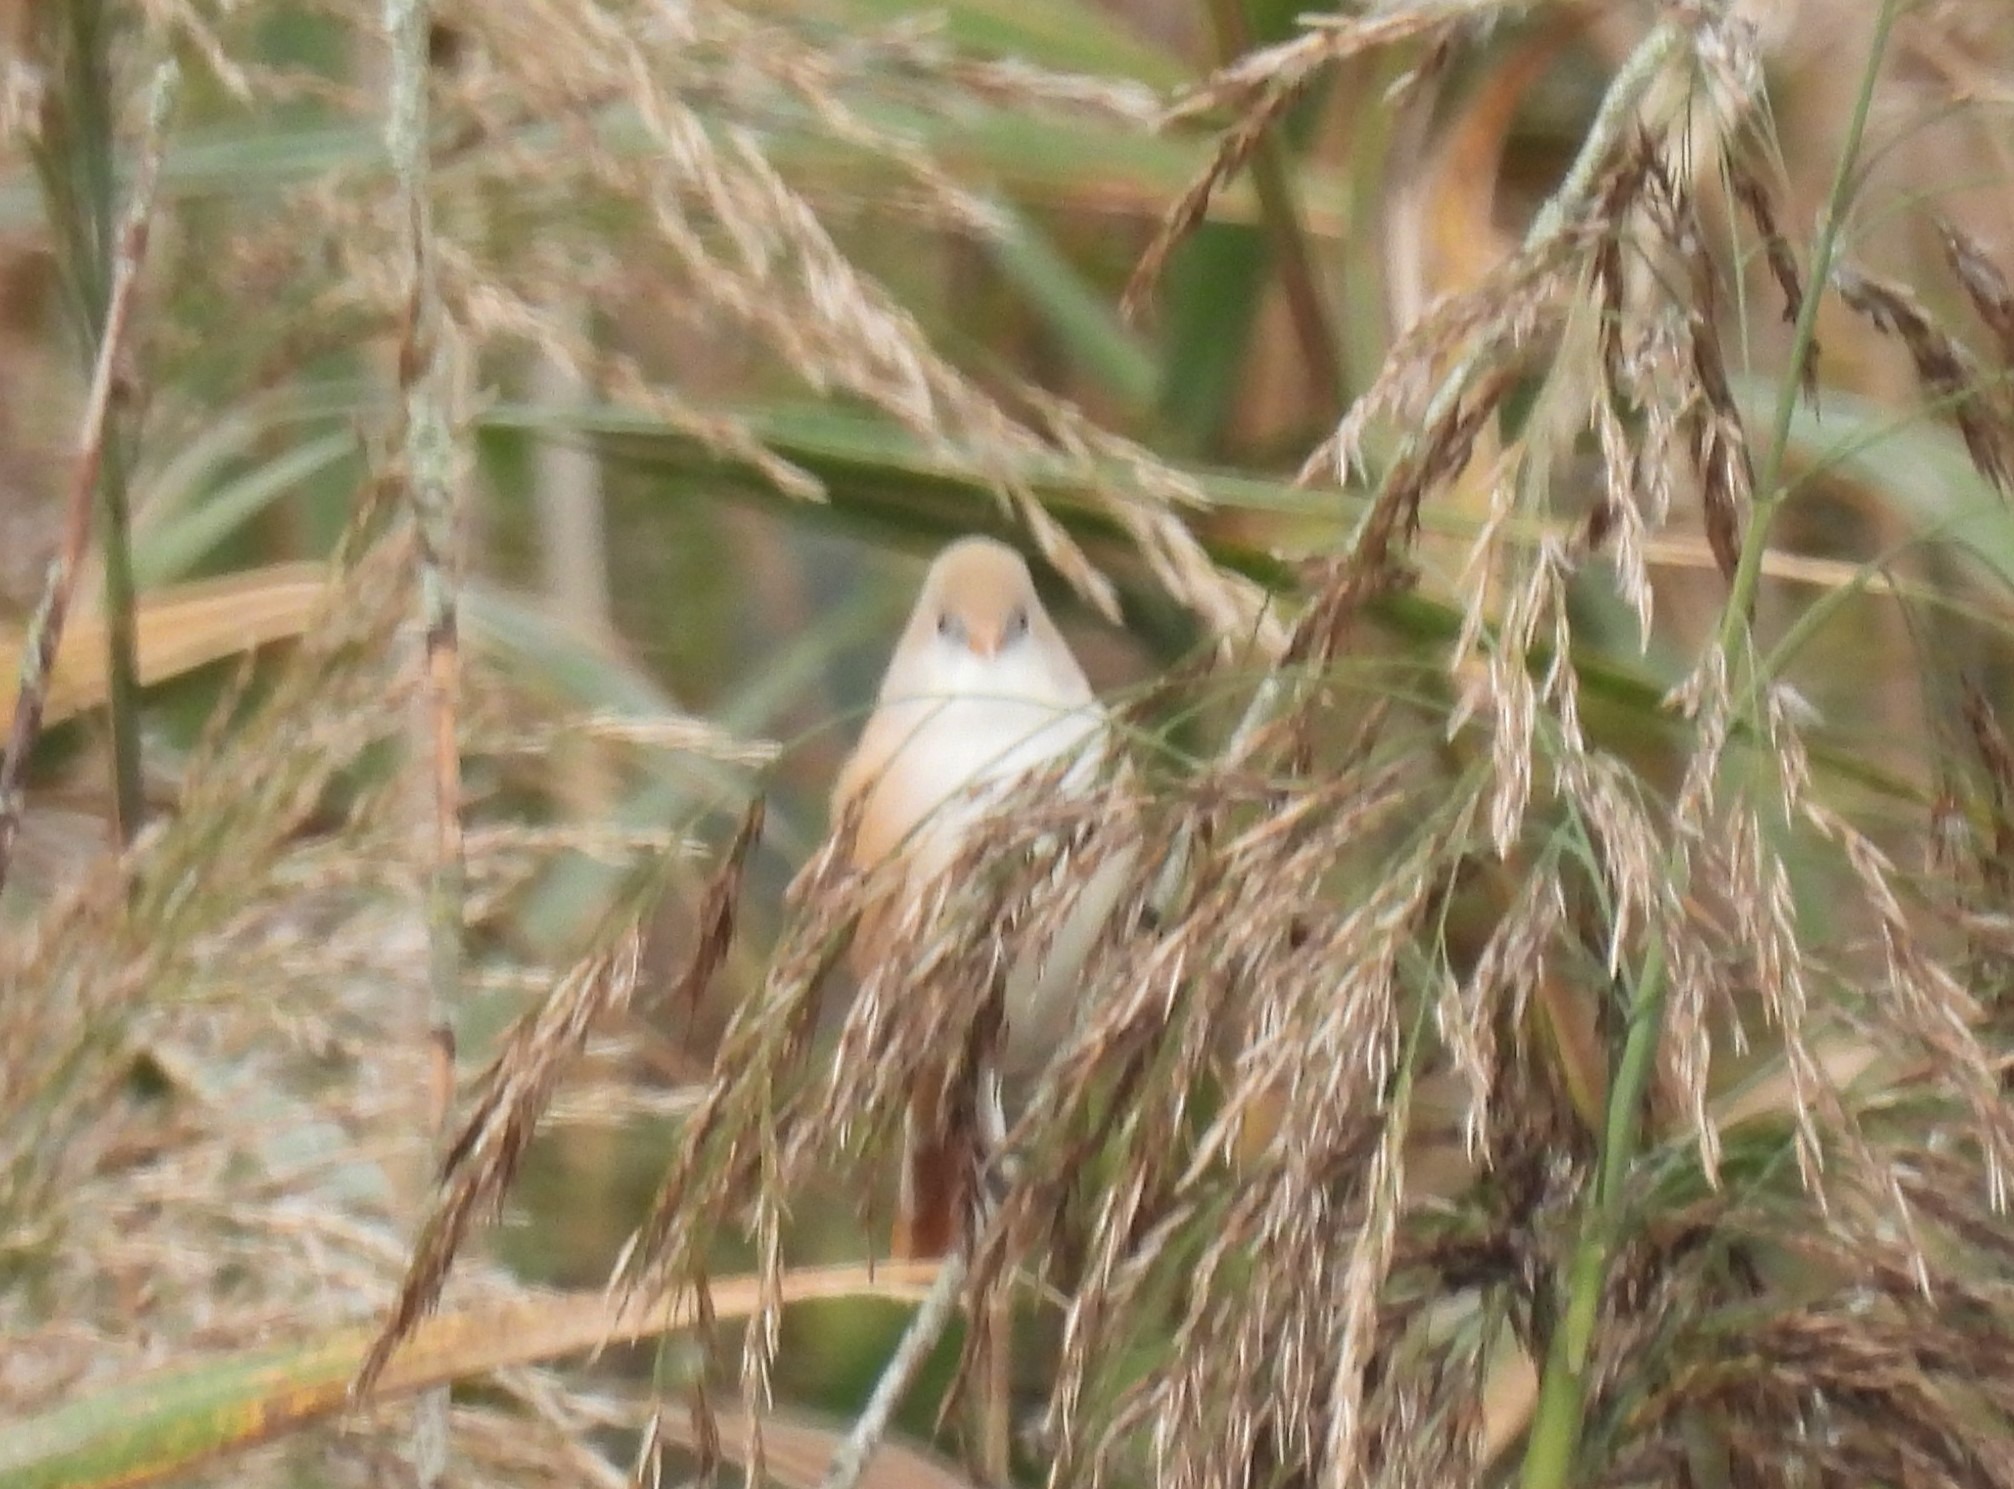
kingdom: Animalia
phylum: Chordata
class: Aves
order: Passeriformes
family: Panuridae
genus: Panurus
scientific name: Panurus biarmicus
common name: Skægmejse
